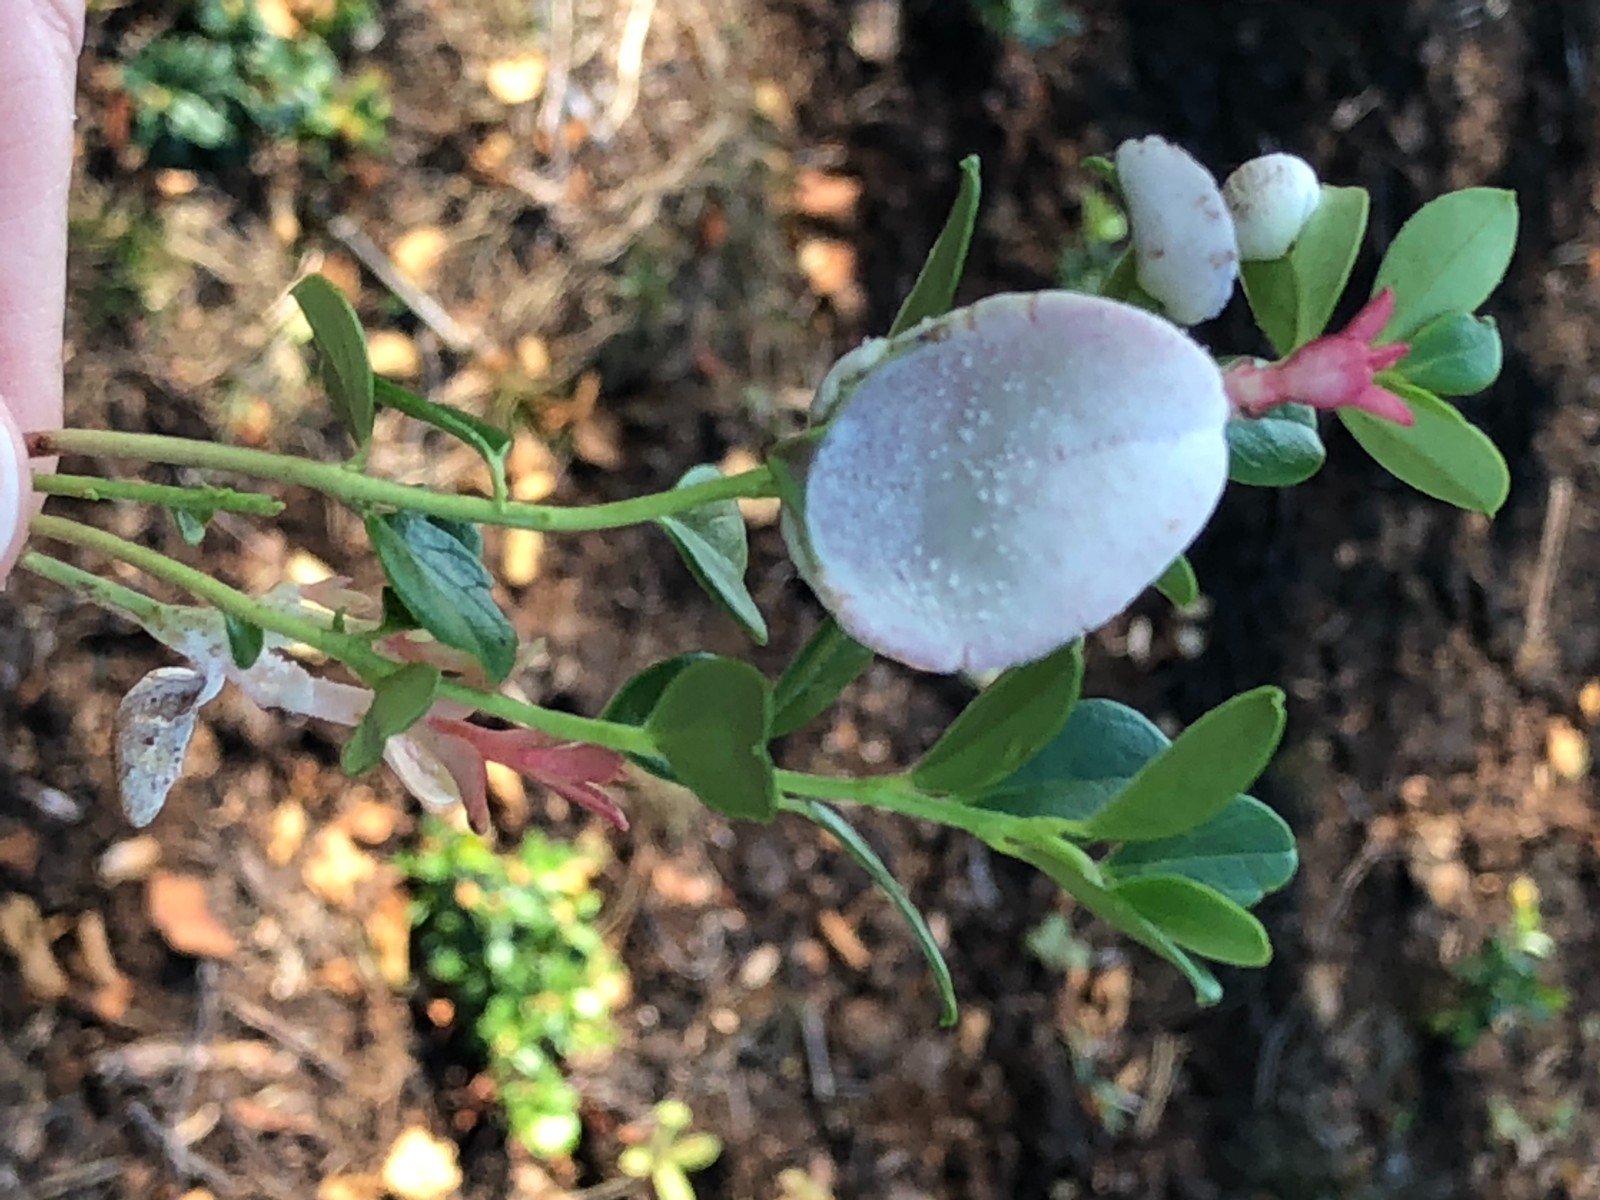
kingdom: Fungi
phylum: Basidiomycota
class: Exobasidiomycetes
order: Exobasidiales
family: Exobasidiaceae
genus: Exobasidium
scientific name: Exobasidium vaccinii
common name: tyttebærblad-bøllesvamp
